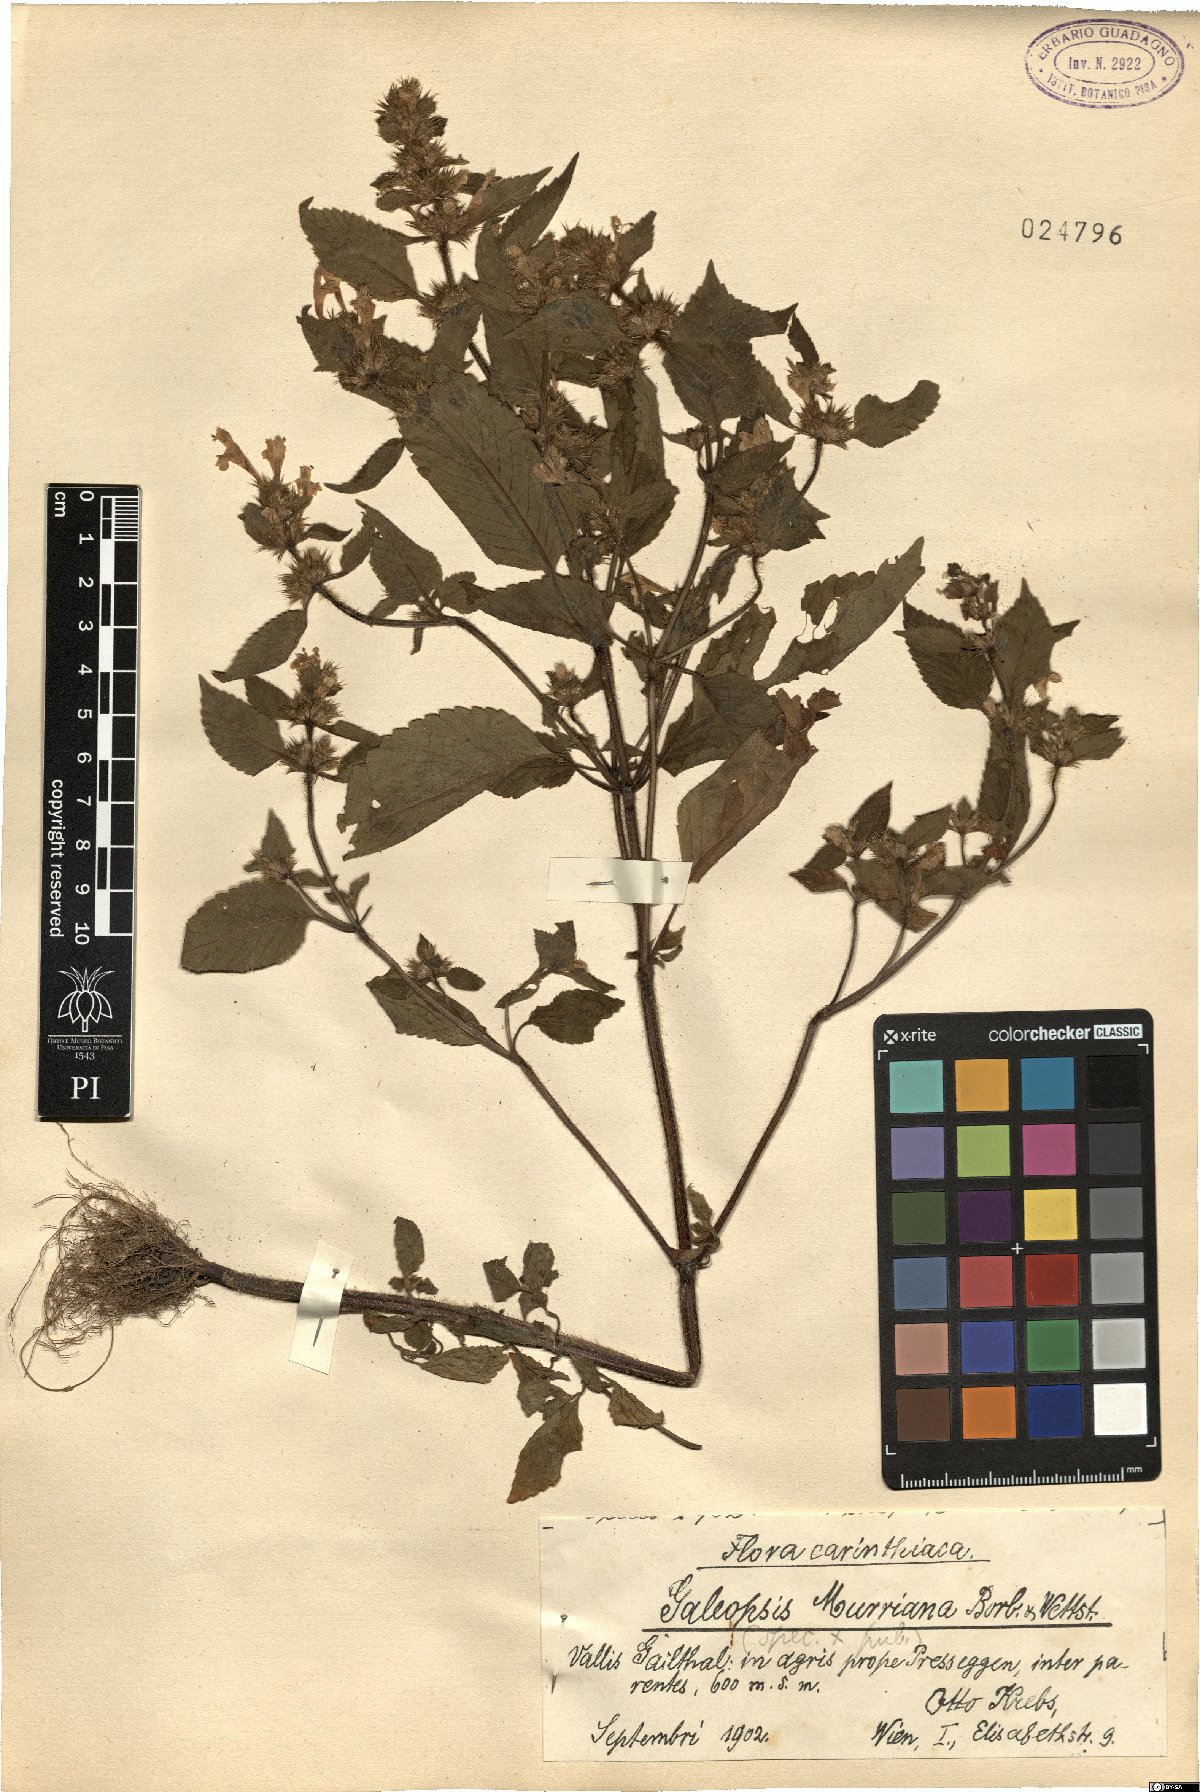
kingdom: Plantae
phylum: Tracheophyta
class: Magnoliopsida
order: Lamiales
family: Lamiaceae
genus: Galeopsis
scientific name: Galeopsis pubescens
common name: Downy hemp-nettle
